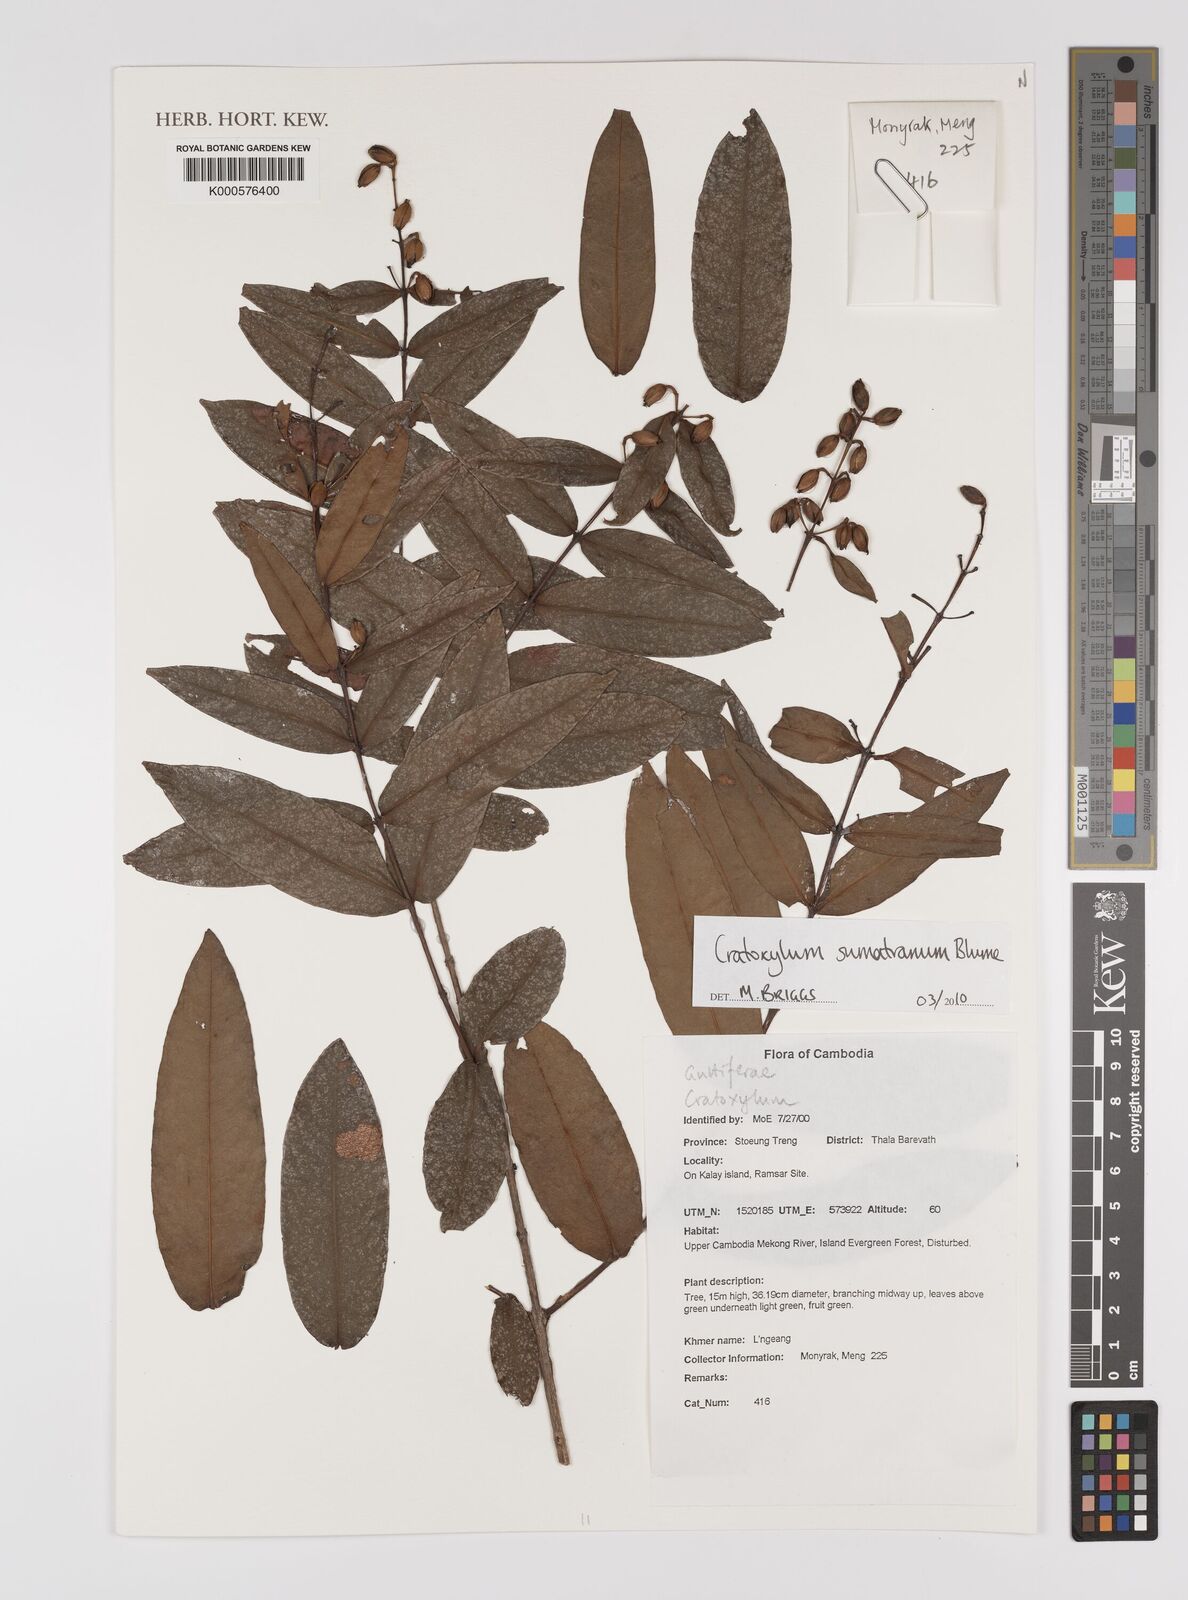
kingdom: Plantae
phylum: Tracheophyta
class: Magnoliopsida
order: Malpighiales
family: Hypericaceae
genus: Cratoxylum
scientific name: Cratoxylum sumatranum
